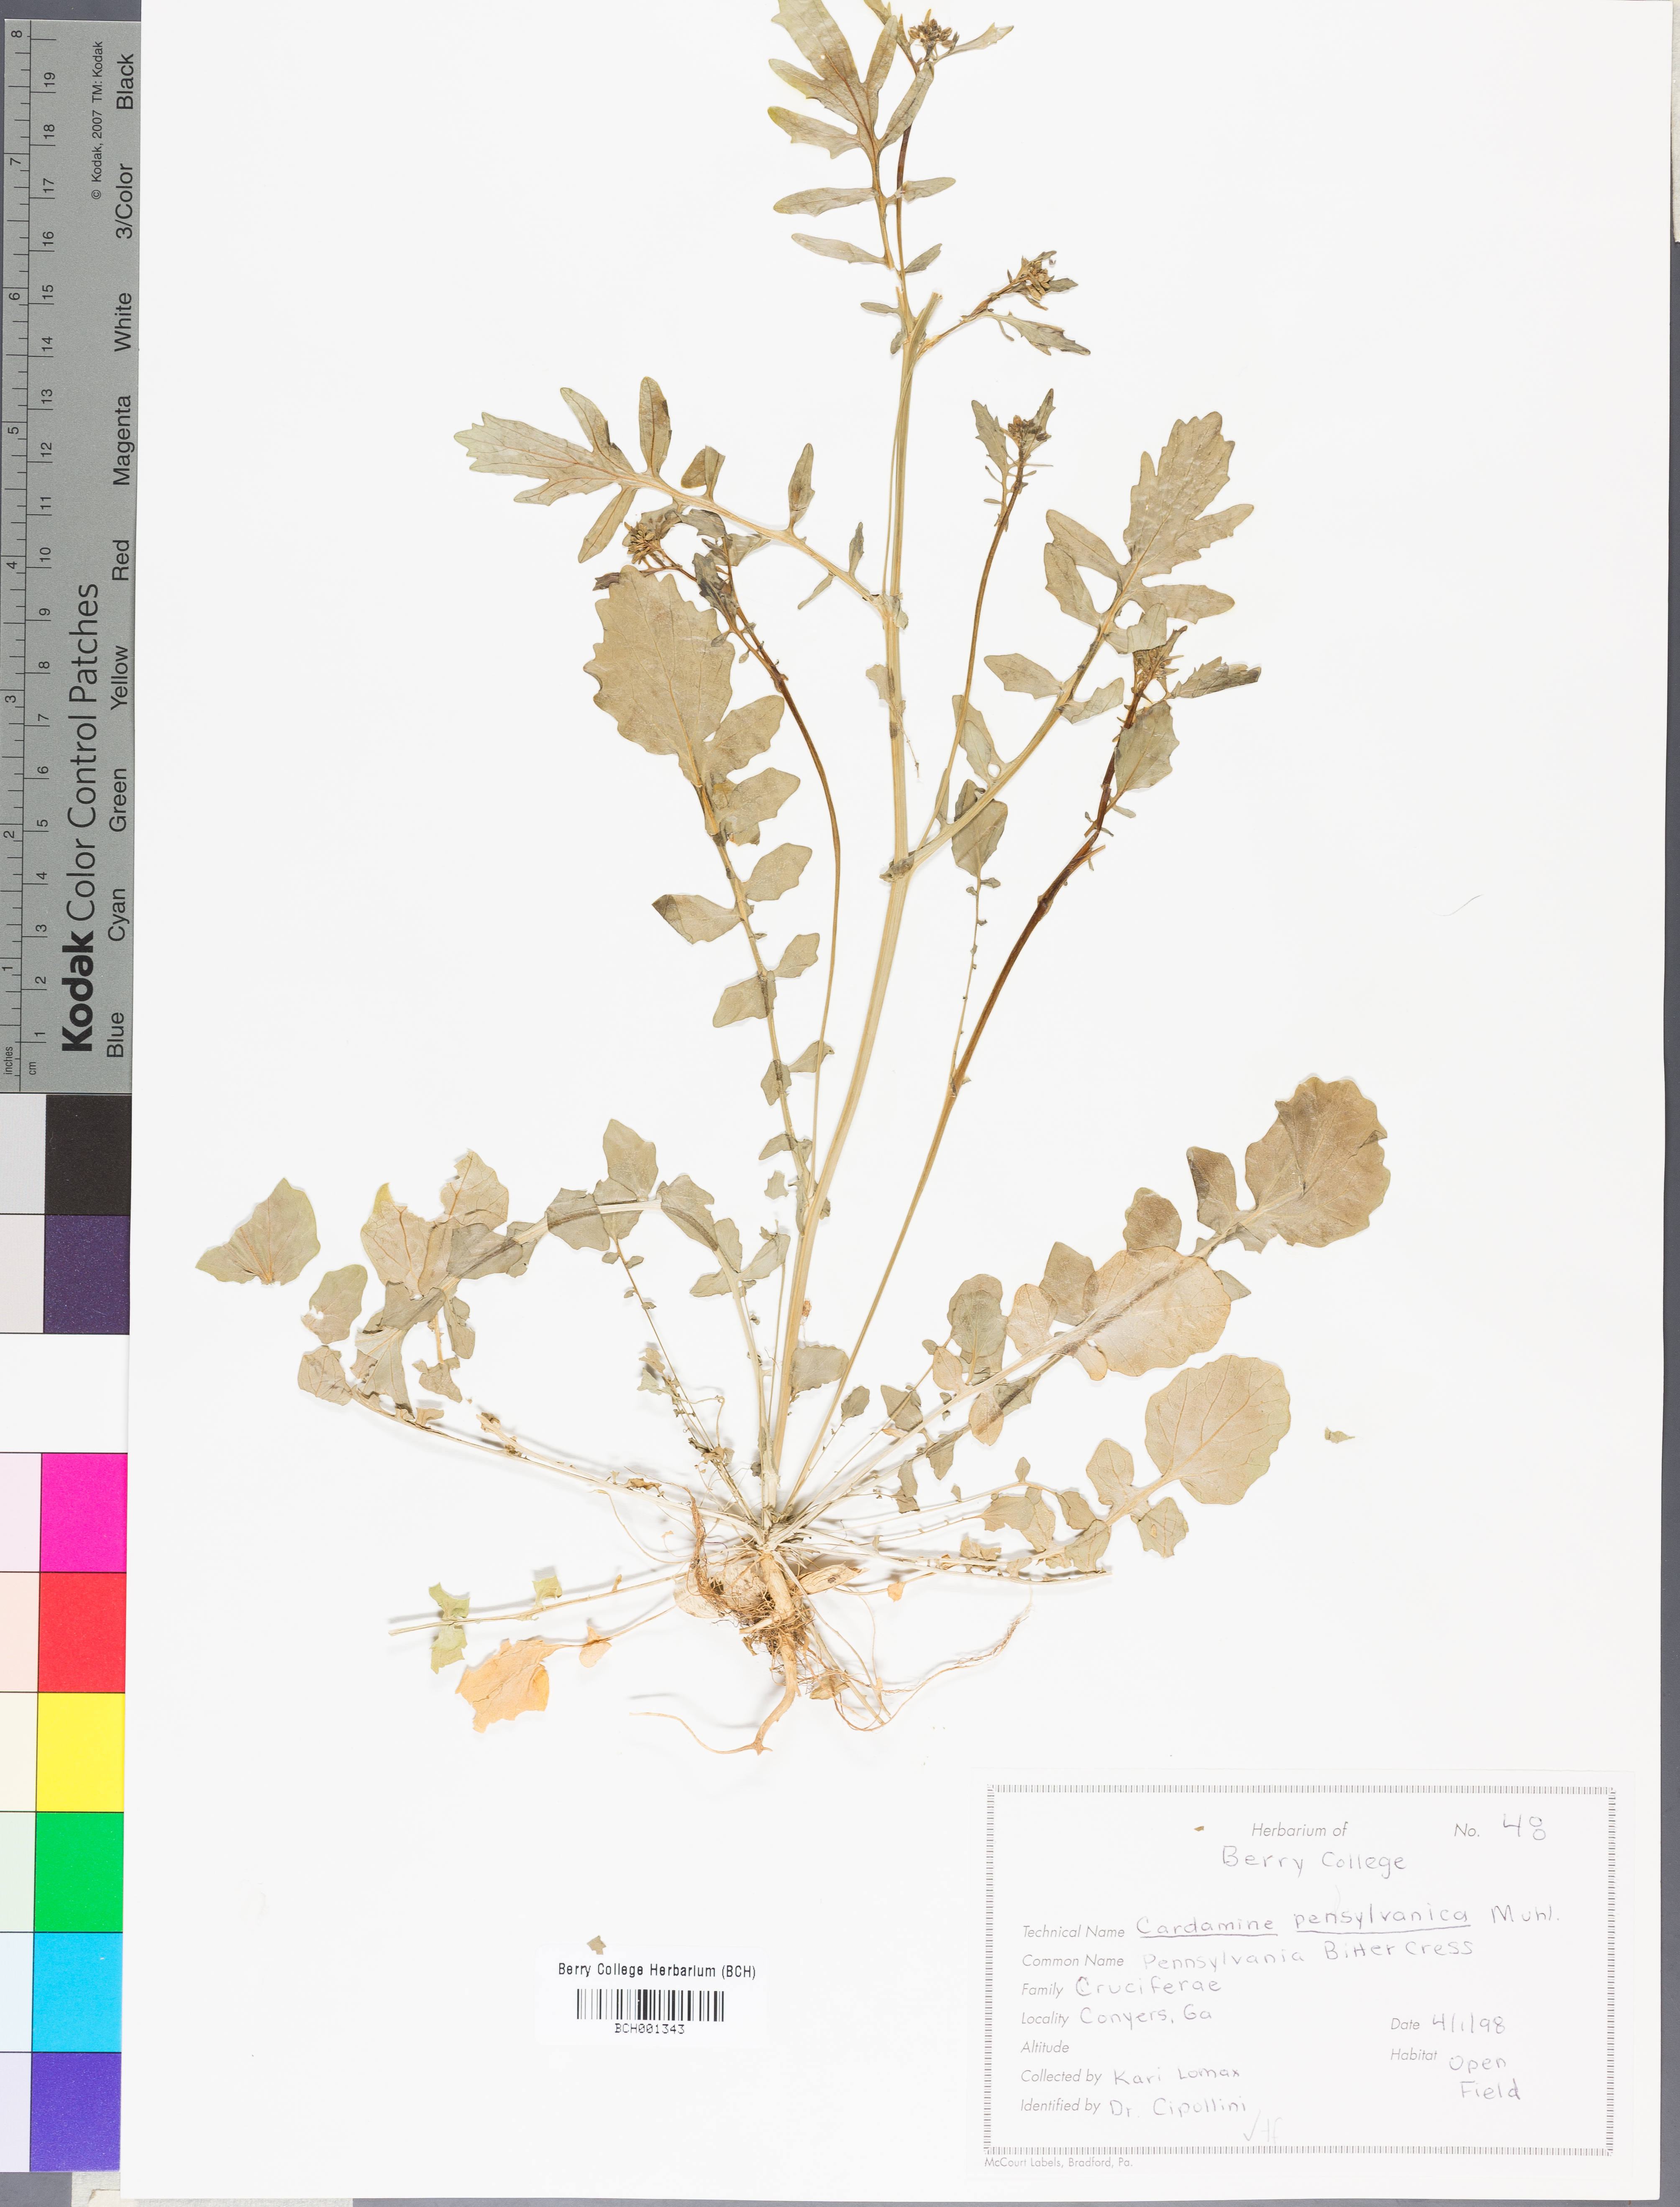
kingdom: Plantae
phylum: Tracheophyta
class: Magnoliopsida
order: Brassicales
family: Brassicaceae
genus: Cardamine
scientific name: Cardamine pensylvanica
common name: Pennsylvania bittercress
